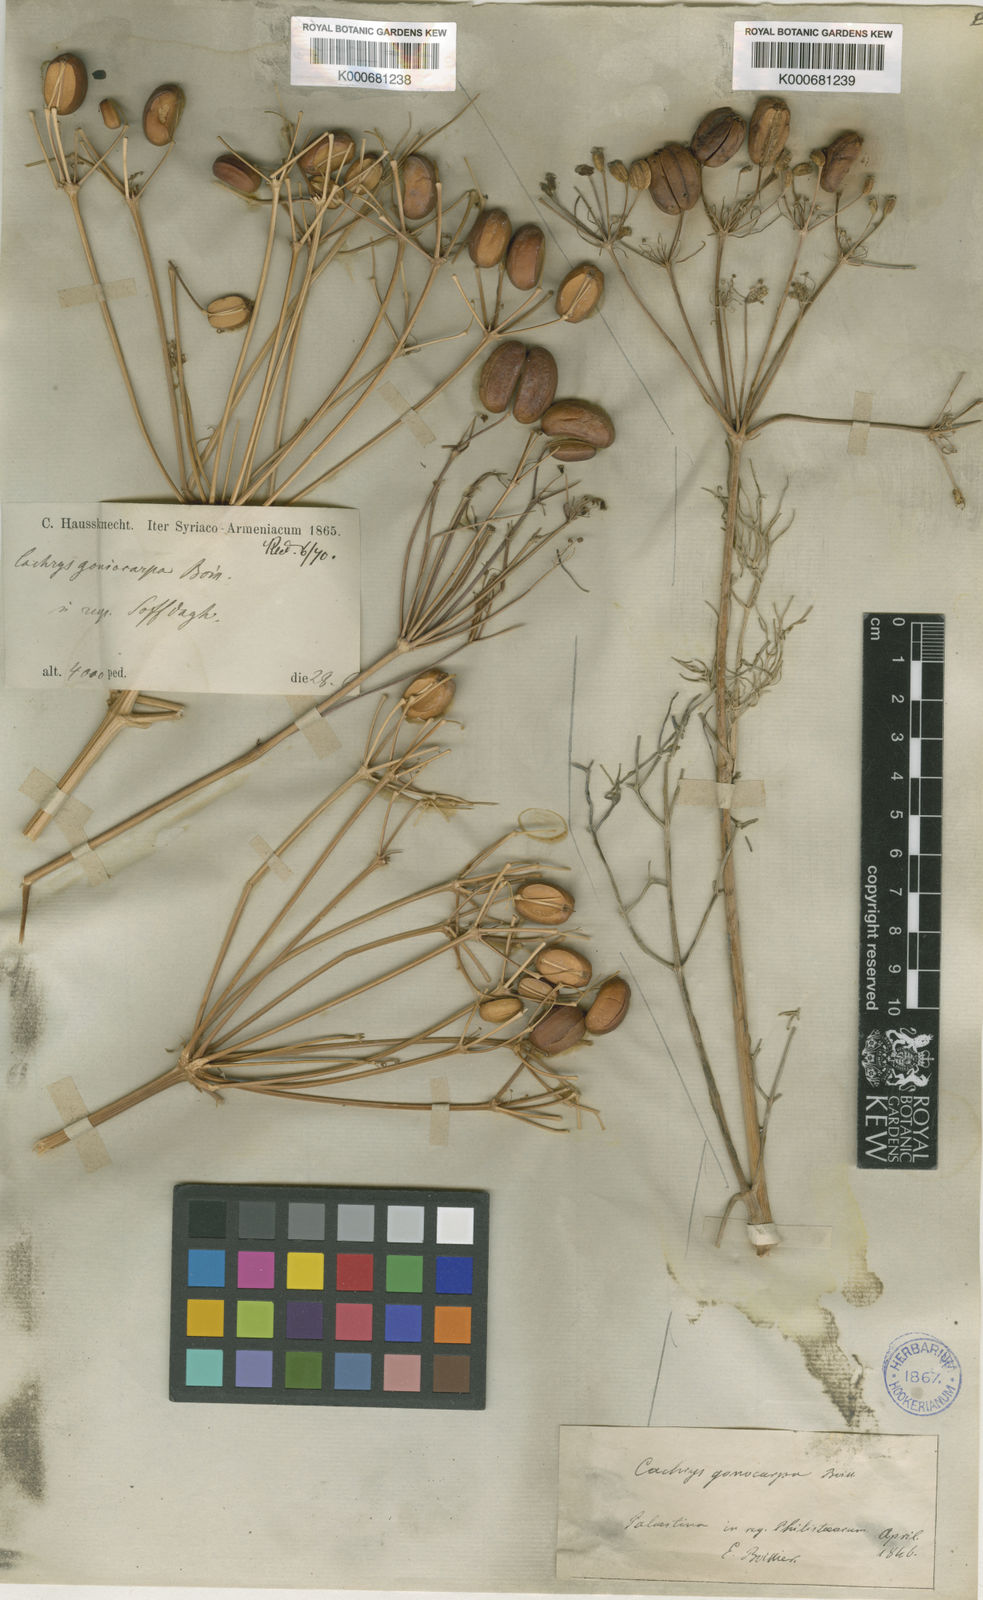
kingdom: Plantae
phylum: Tracheophyta
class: Magnoliopsida
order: Apiales
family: Apiaceae
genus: Prangos
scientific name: Prangos ferulacea
